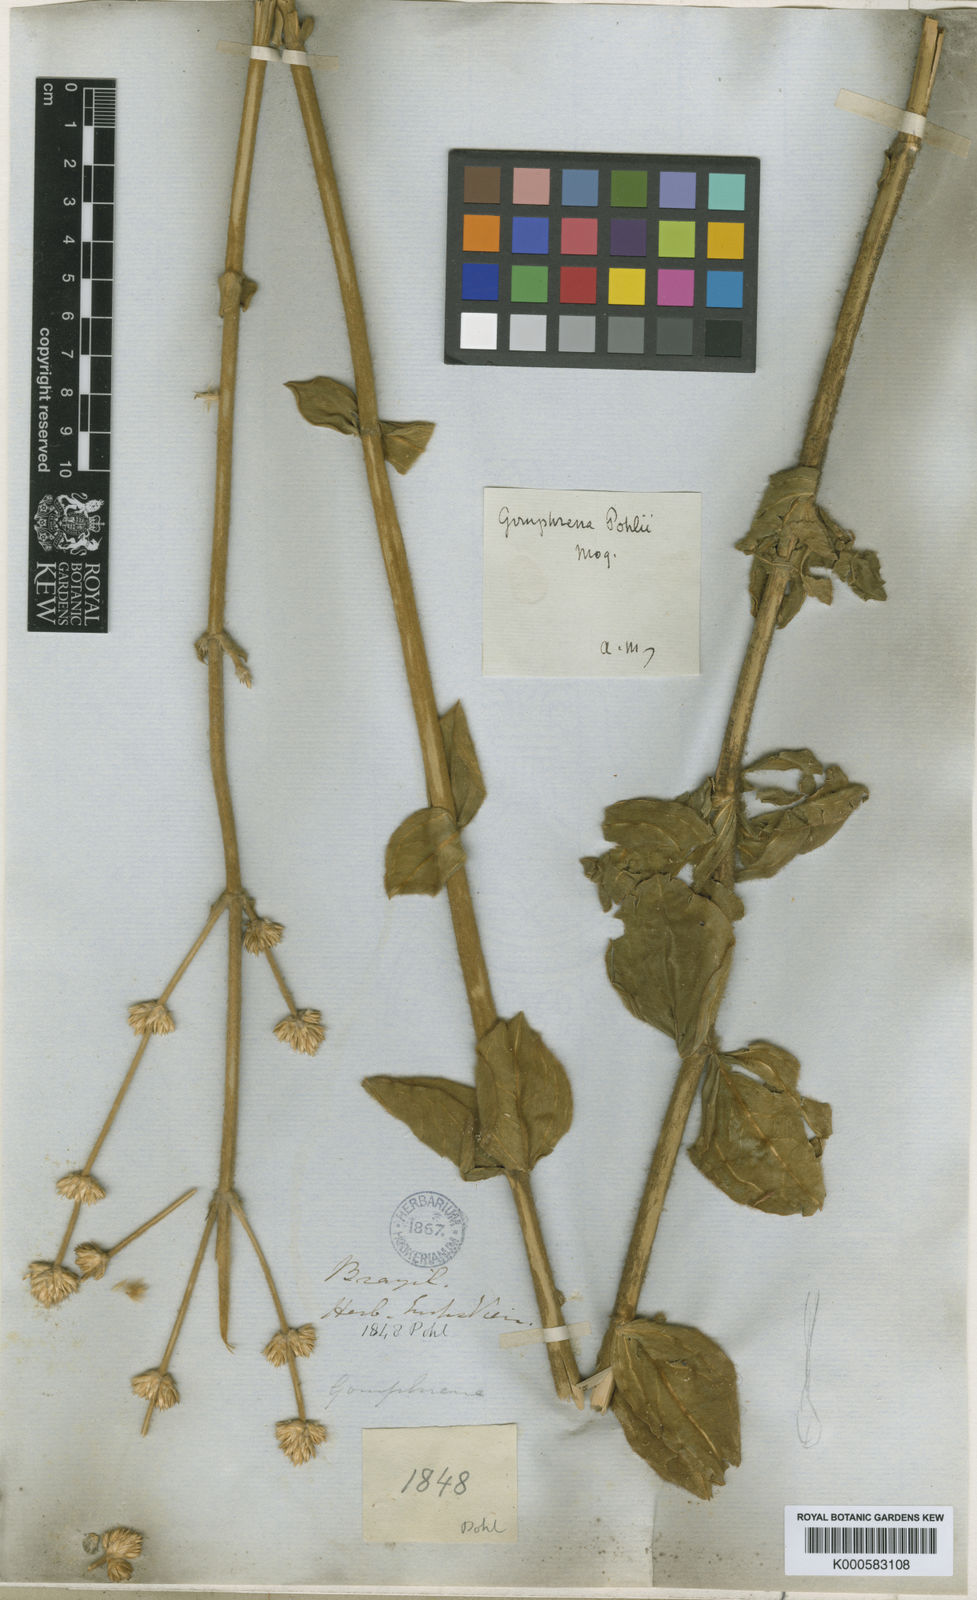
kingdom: Plantae
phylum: Tracheophyta
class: Magnoliopsida
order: Caryophyllales
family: Amaranthaceae
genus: Gomphrena
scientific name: Gomphrena pohlii
